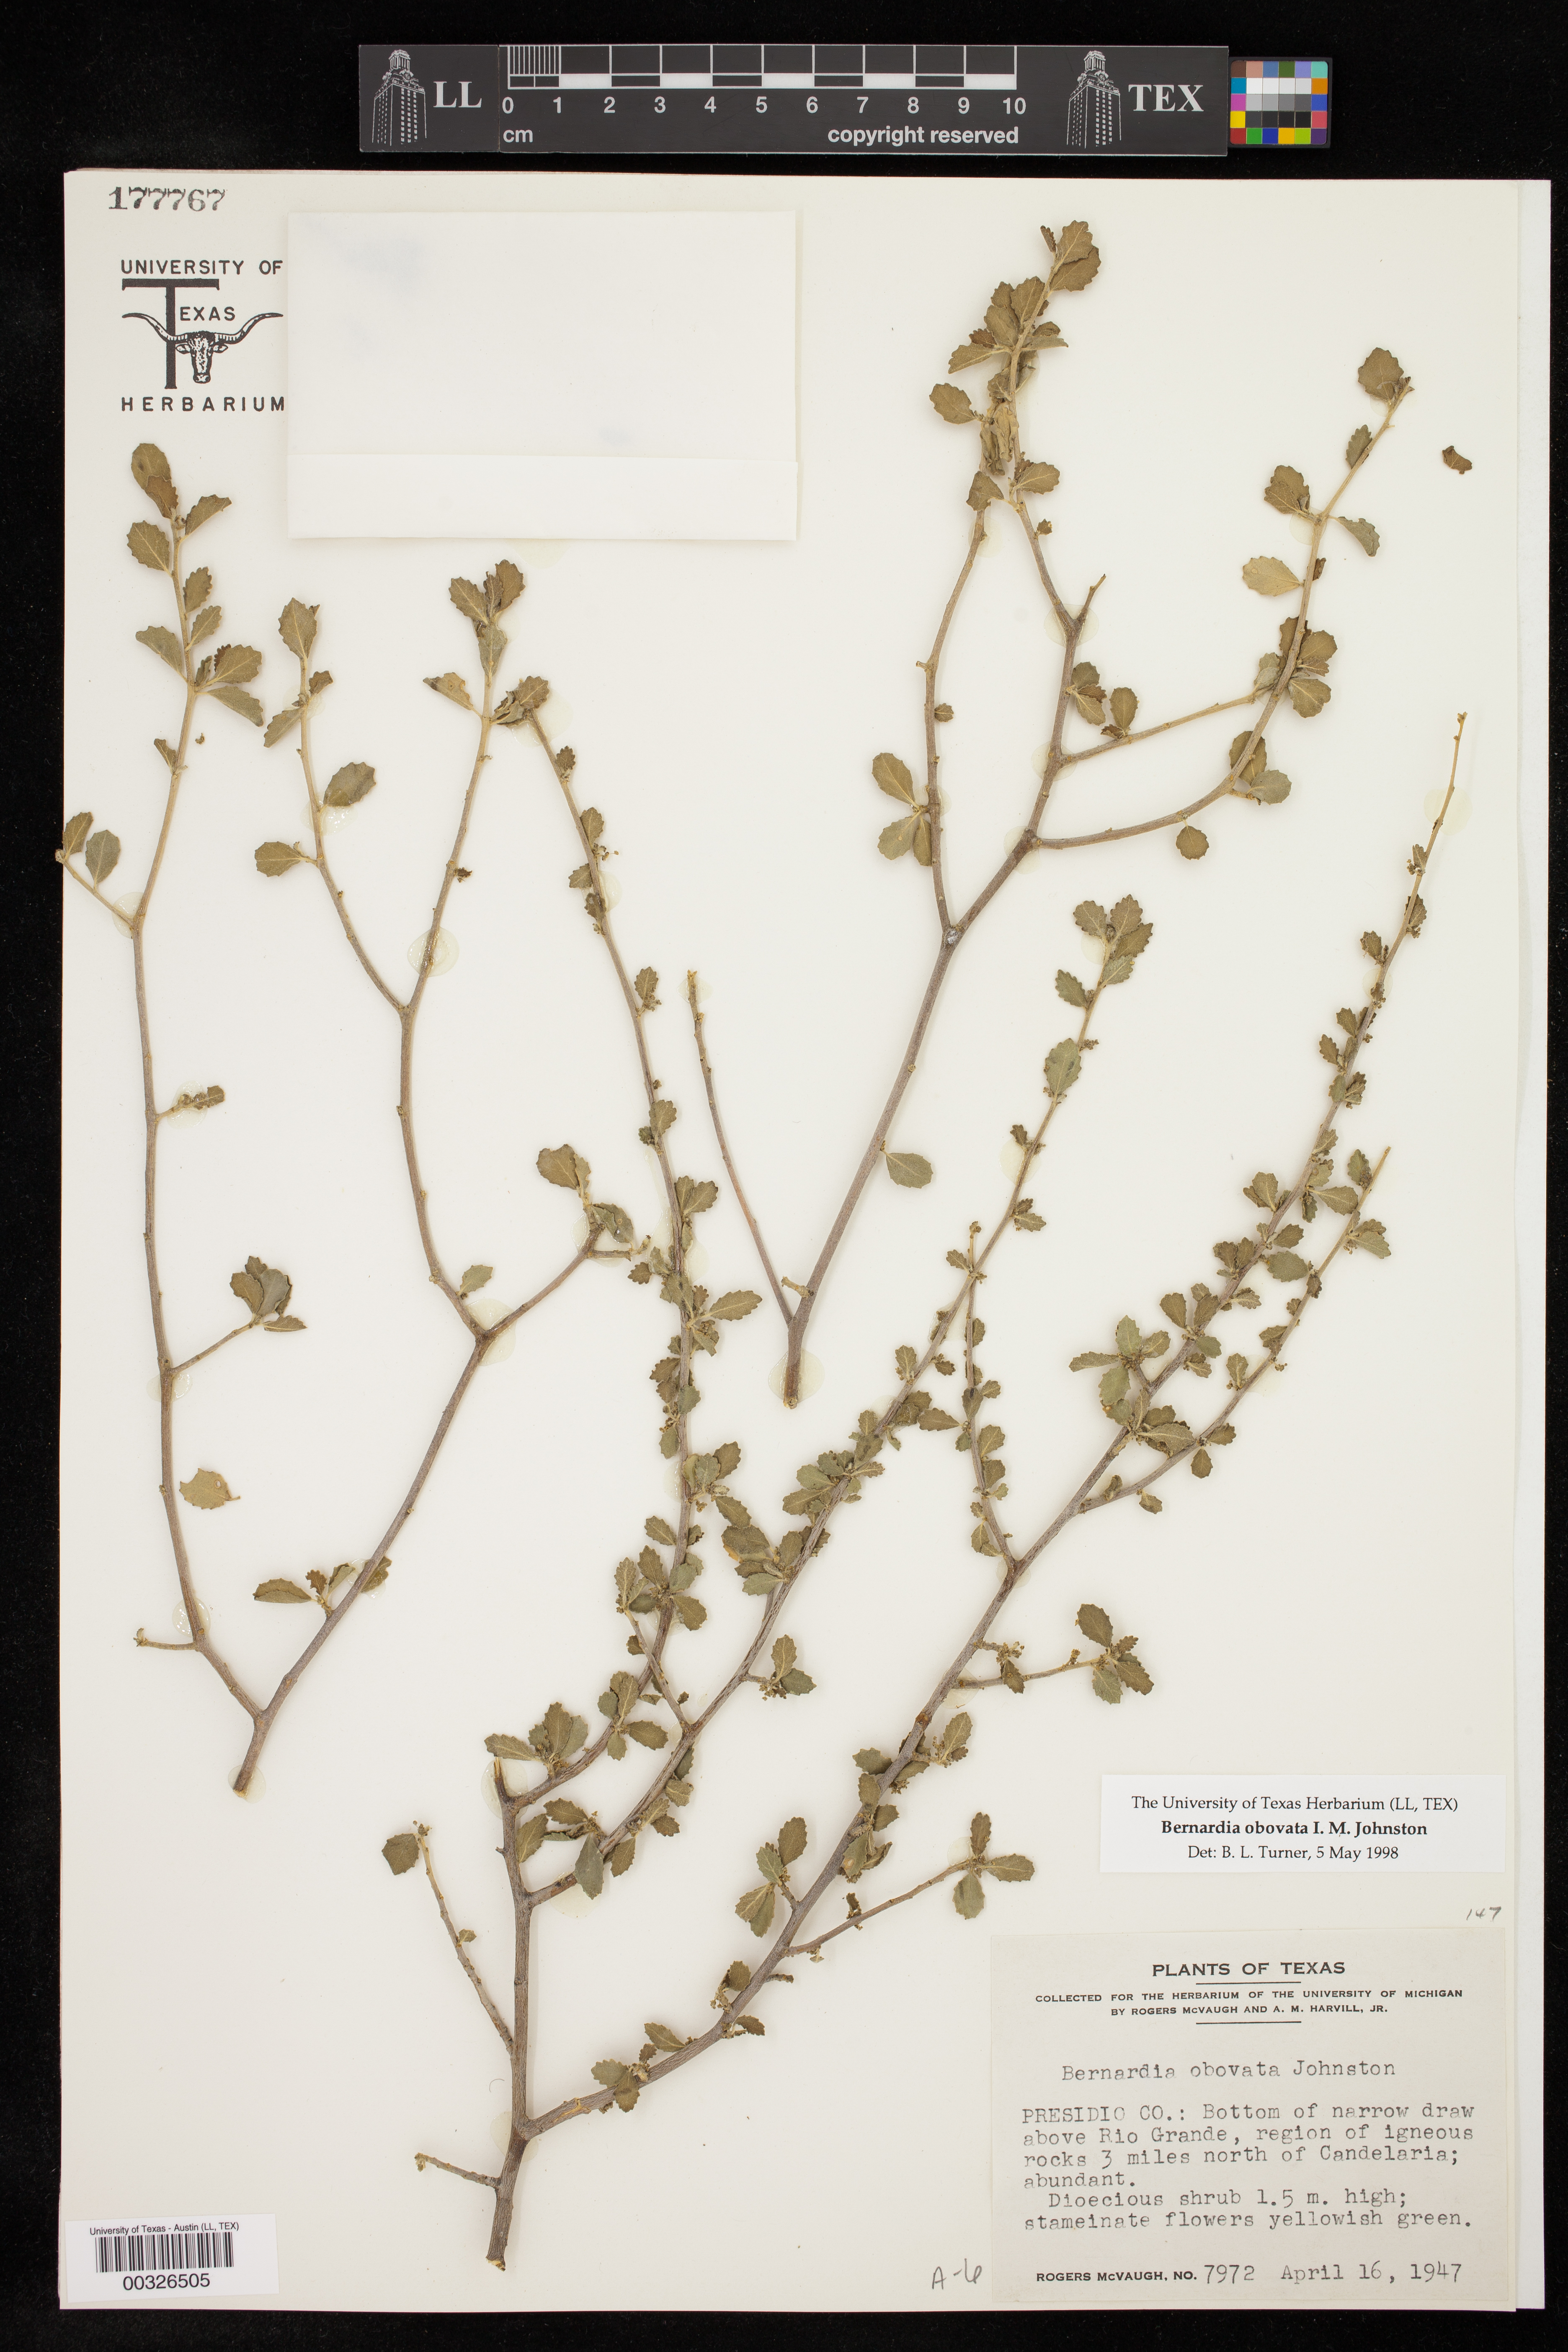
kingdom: Plantae
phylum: Tracheophyta
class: Magnoliopsida
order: Malpighiales
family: Euphorbiaceae
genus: Bernardia
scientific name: Bernardia obovata
